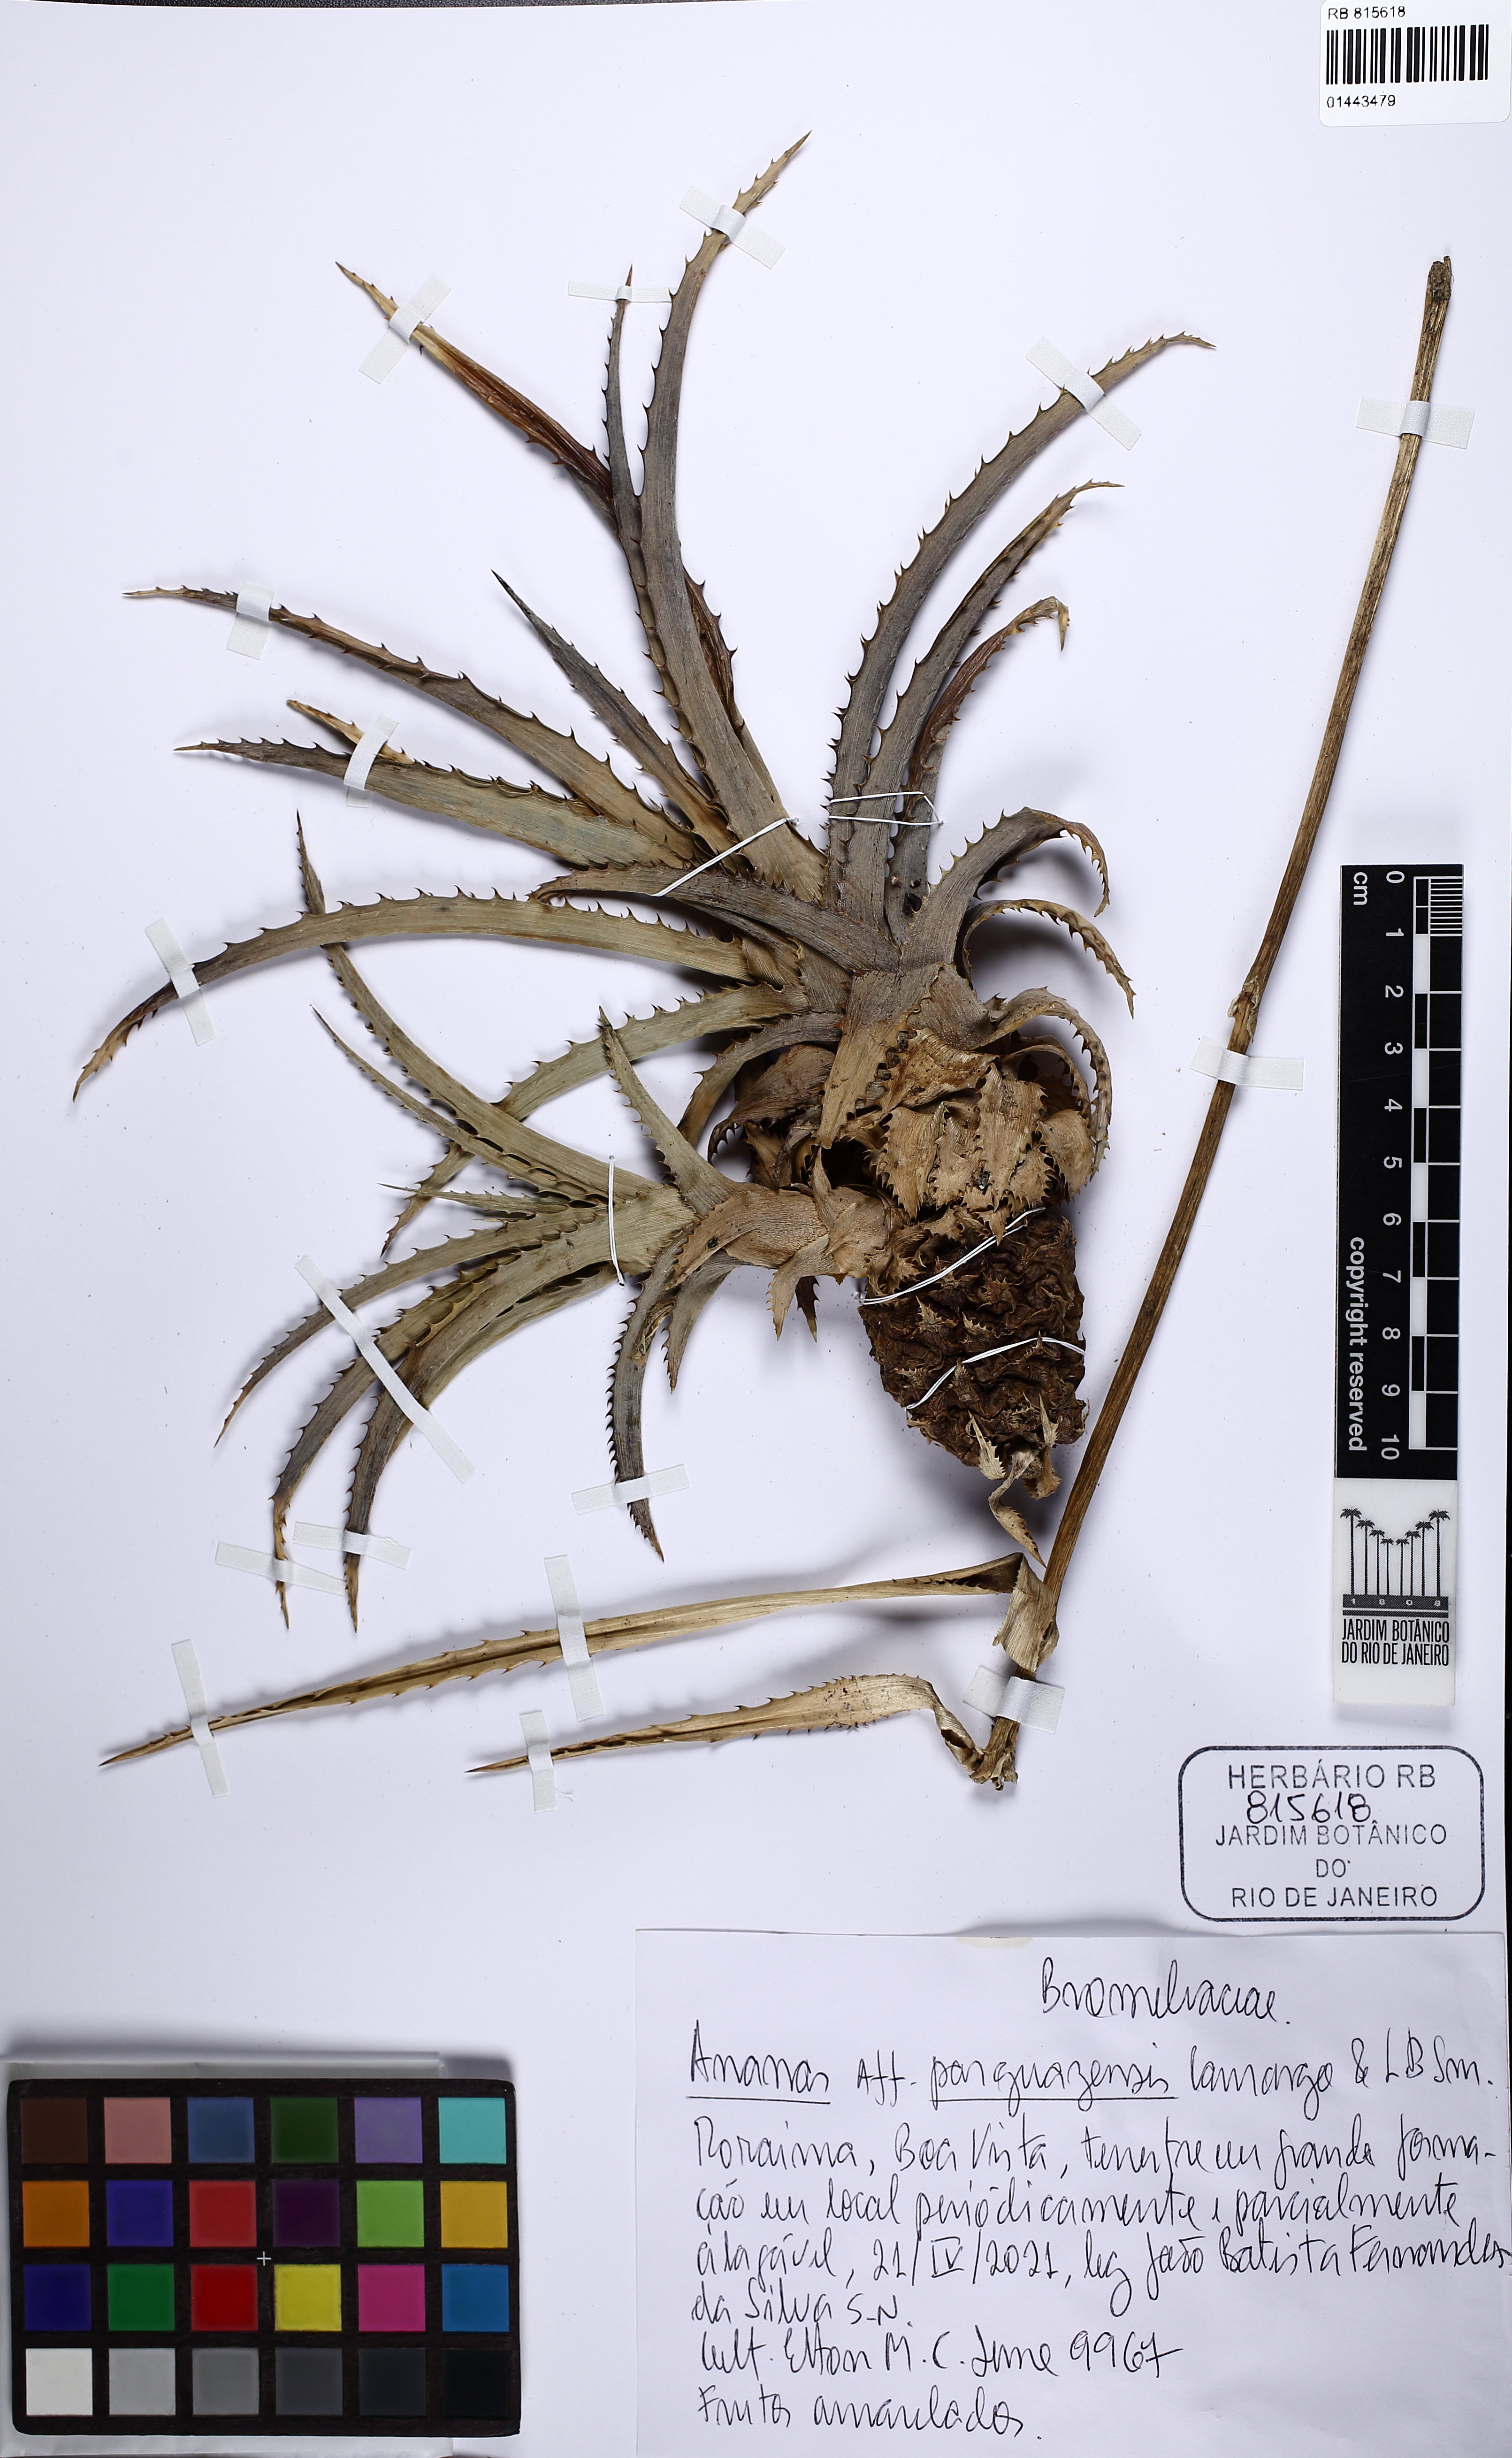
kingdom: Plantae
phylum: Tracheophyta
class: Liliopsida
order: Poales
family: Bromeliaceae
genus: Ananas
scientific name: Ananas comosus
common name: Pineapple
